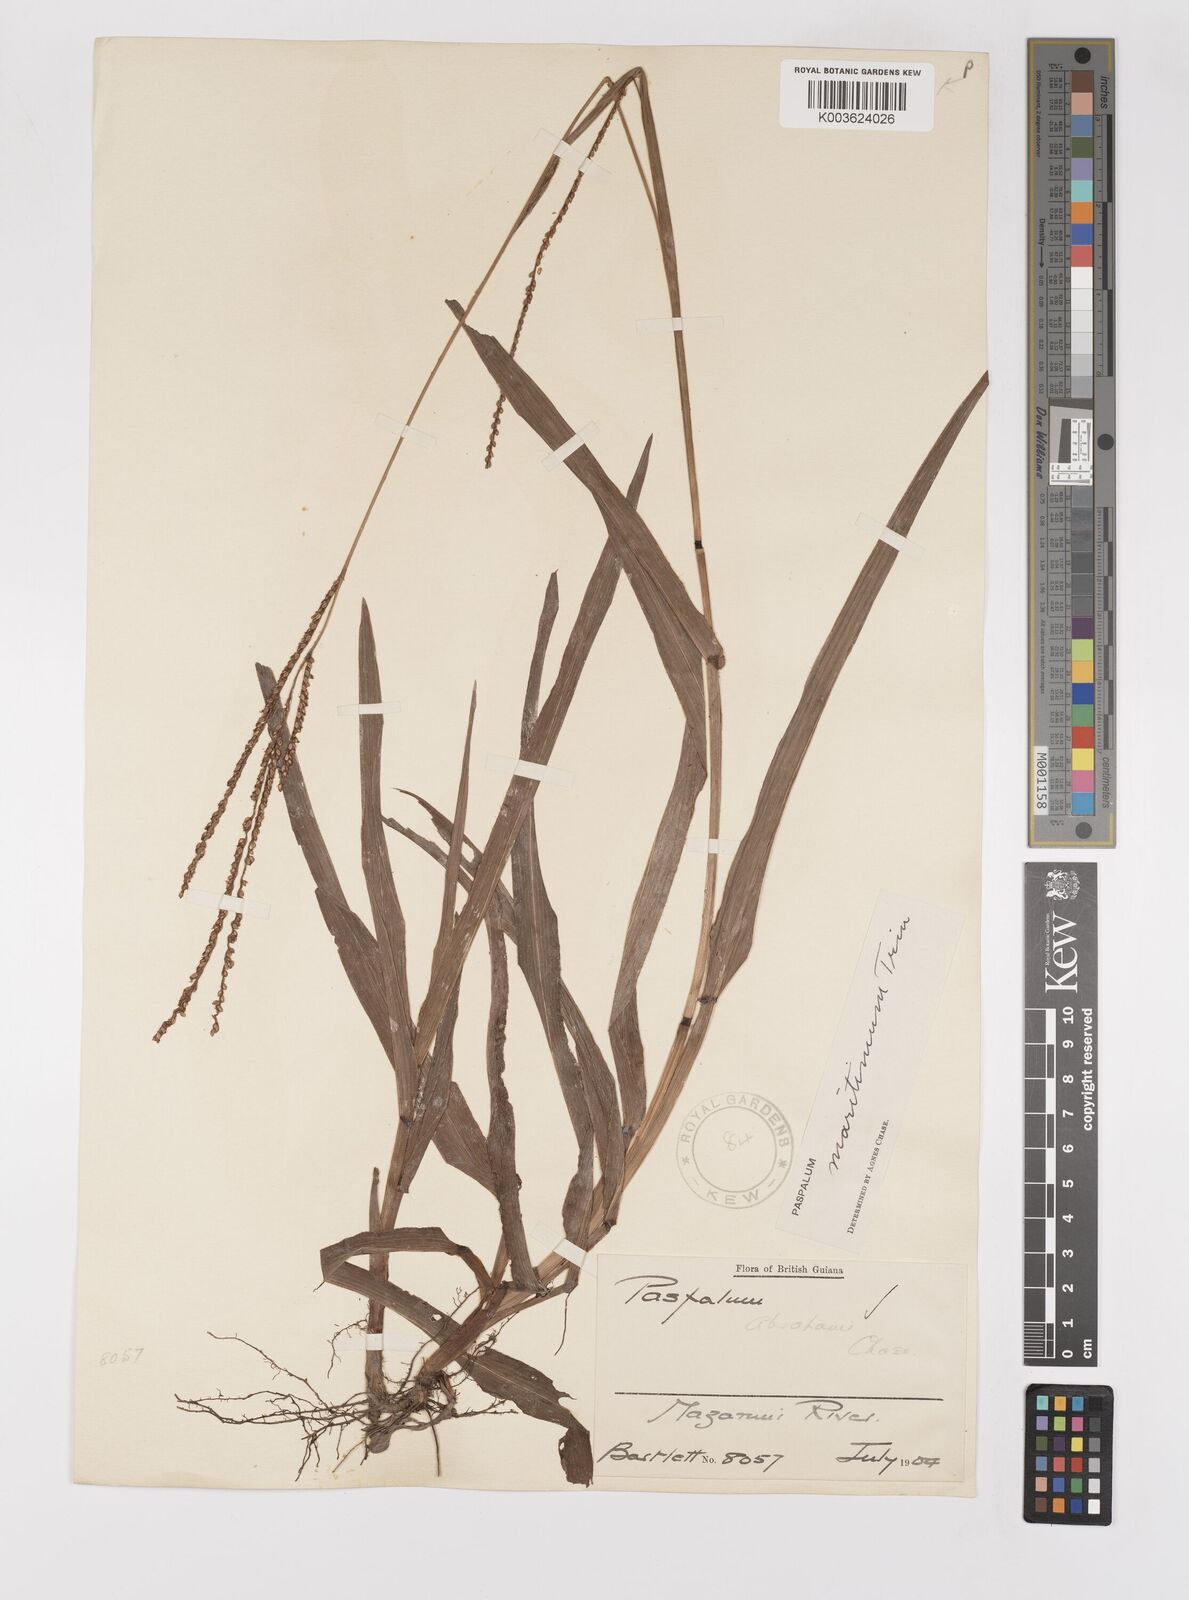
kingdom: Plantae
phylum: Tracheophyta
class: Liliopsida
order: Poales
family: Poaceae
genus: Paspalum
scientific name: Paspalum maritimum
